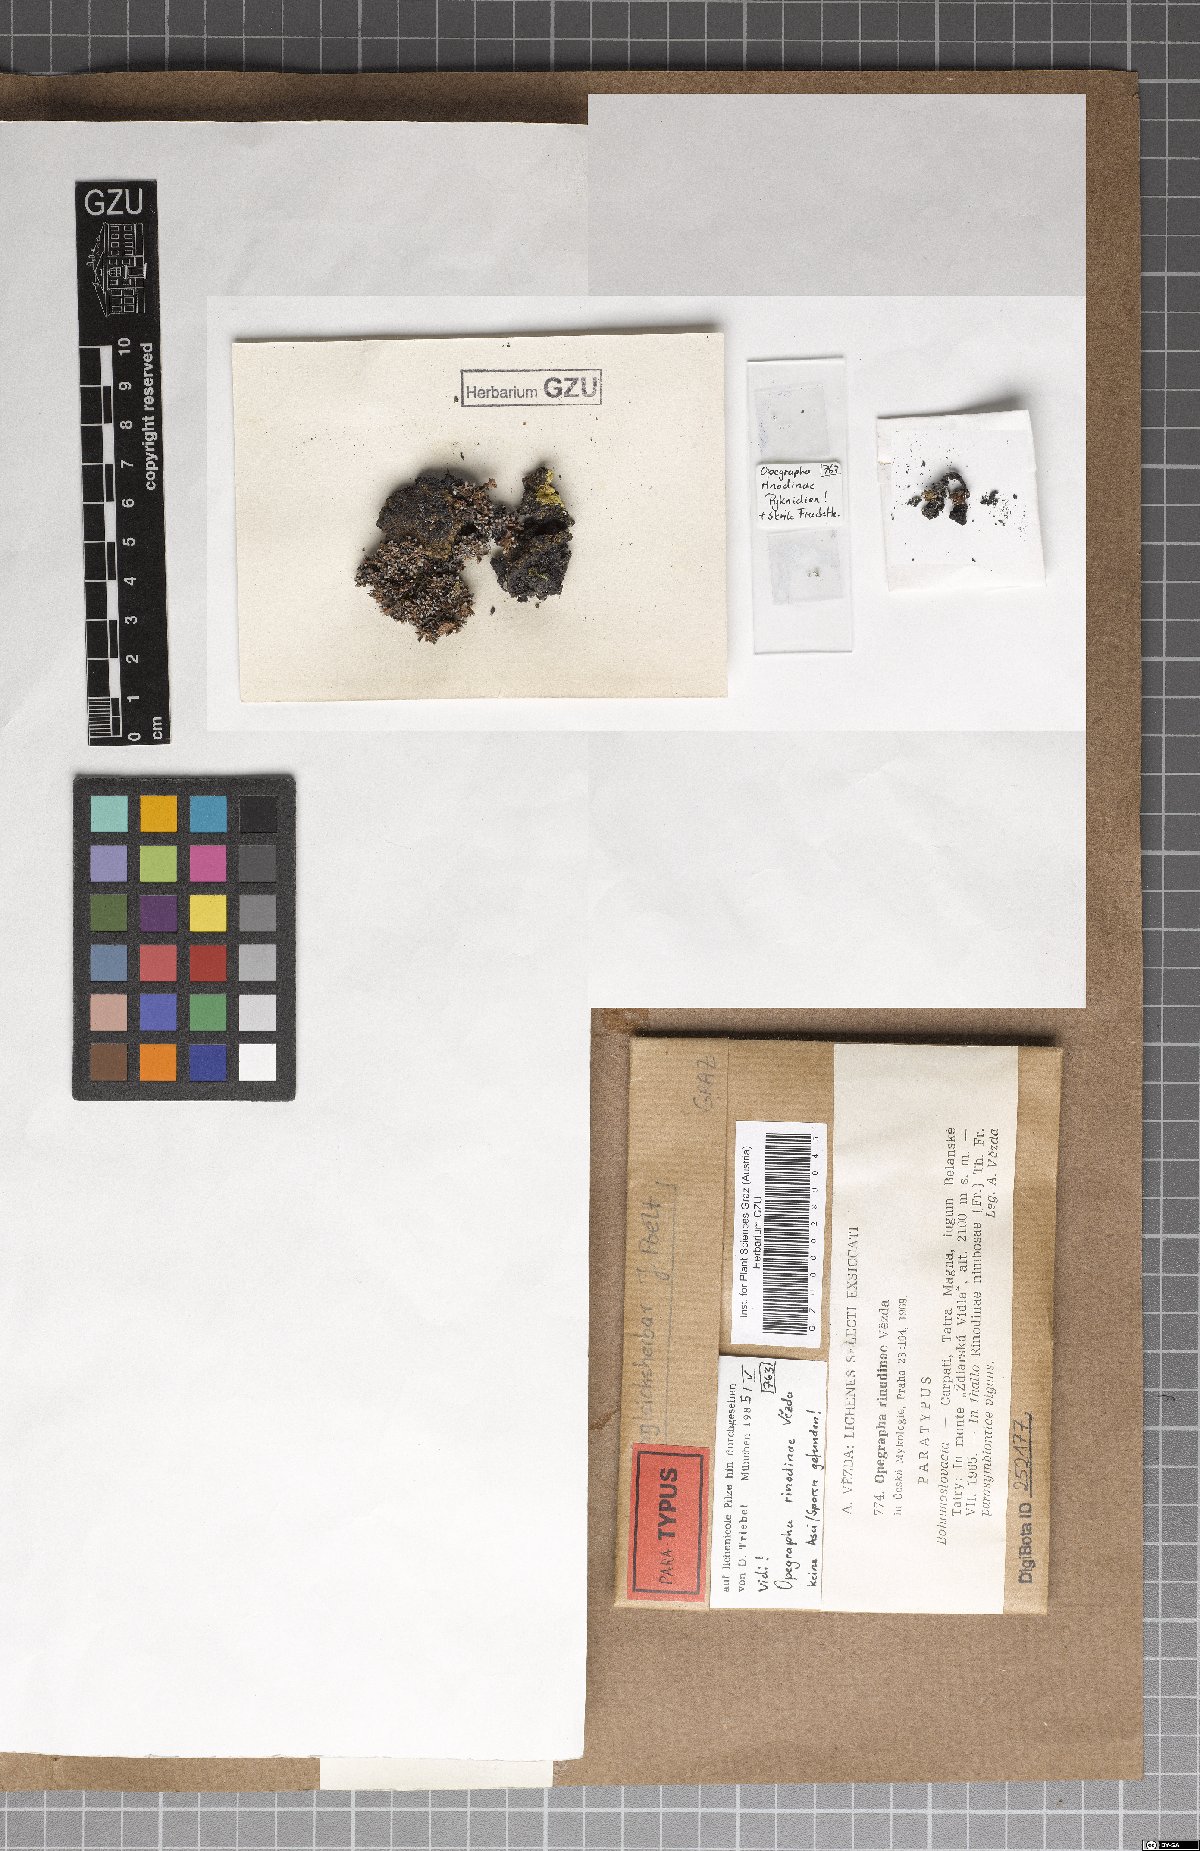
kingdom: Fungi
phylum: Ascomycota
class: Arthoniomycetes
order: Arthoniales
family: Lecanographaceae
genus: Lecanographa
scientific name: Lecanographa rinodinae
